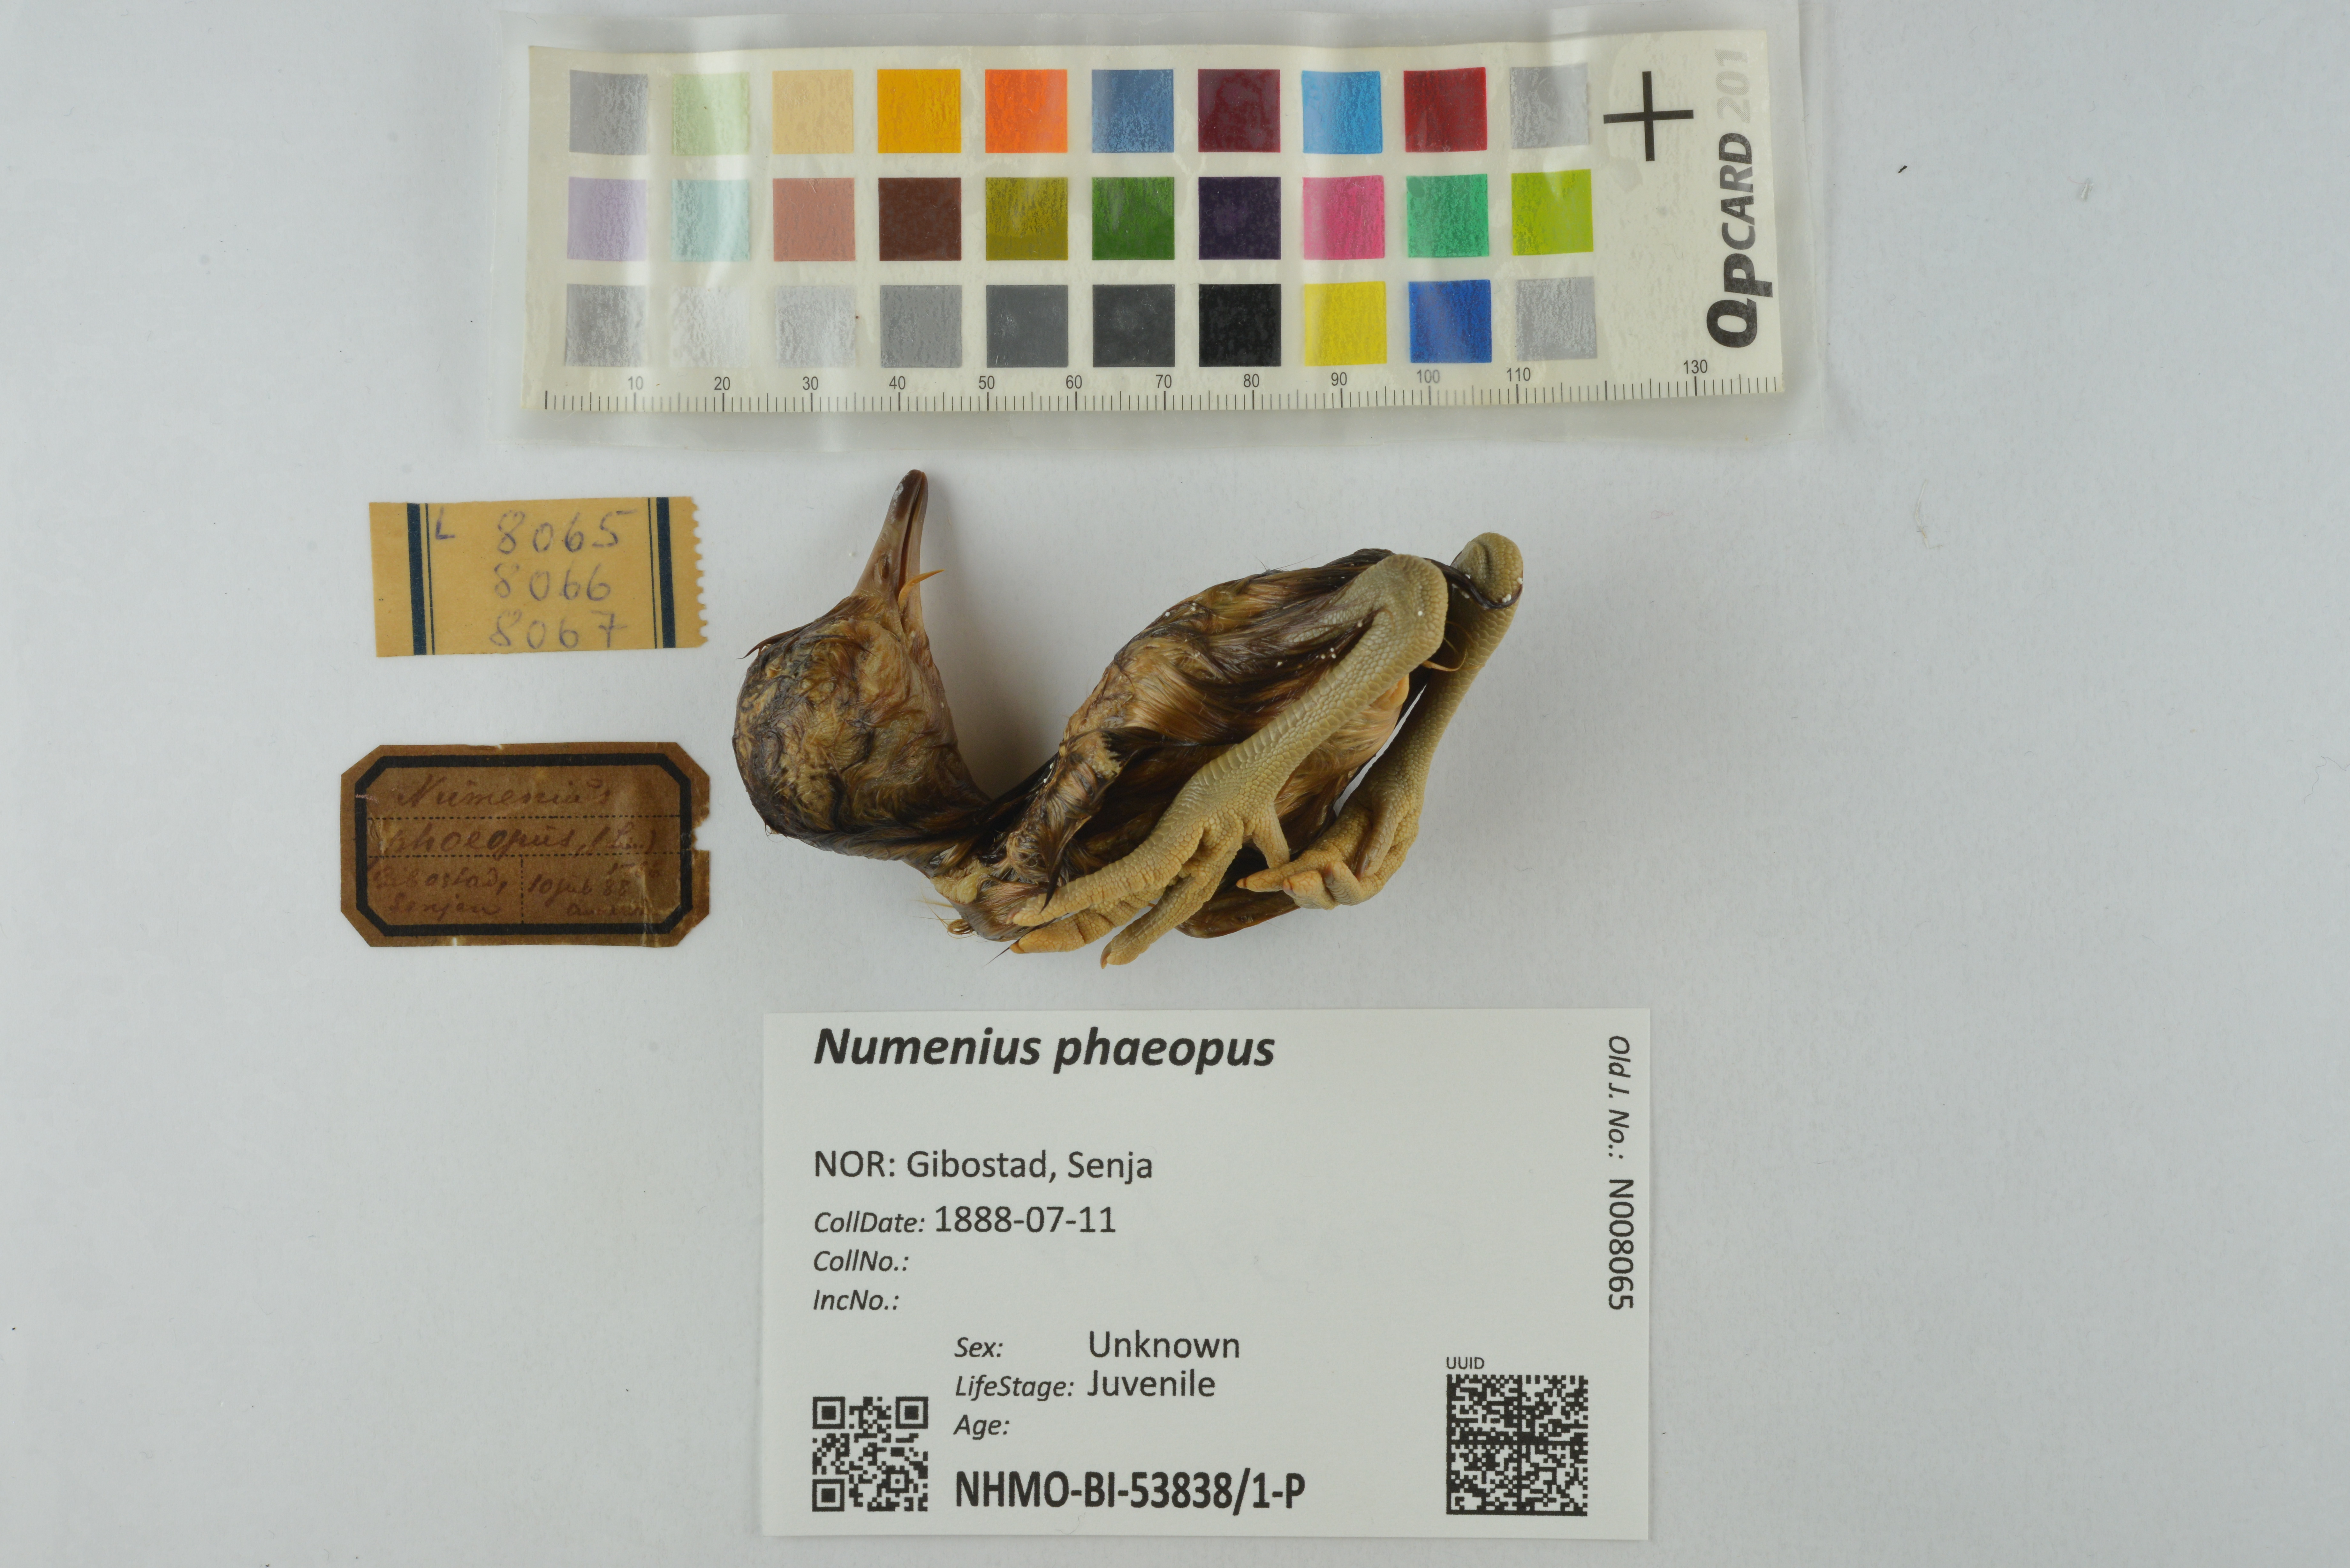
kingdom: Animalia
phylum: Chordata
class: Aves
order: Charadriiformes
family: Scolopacidae
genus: Numenius
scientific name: Numenius phaeopus
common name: Whimbrel
